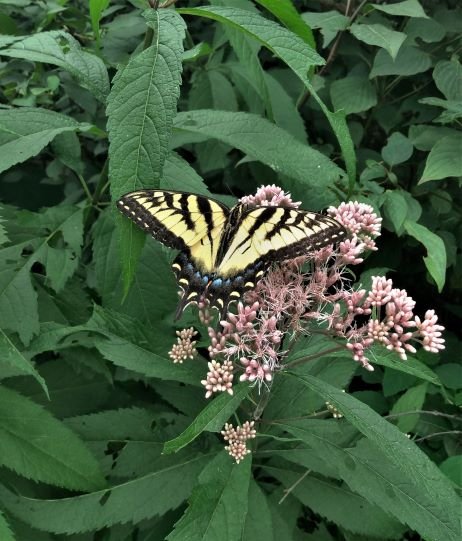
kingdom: Animalia
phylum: Arthropoda
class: Insecta
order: Lepidoptera
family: Papilionidae
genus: Pterourus
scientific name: Pterourus glaucus
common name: Eastern Tiger Swallowtail
